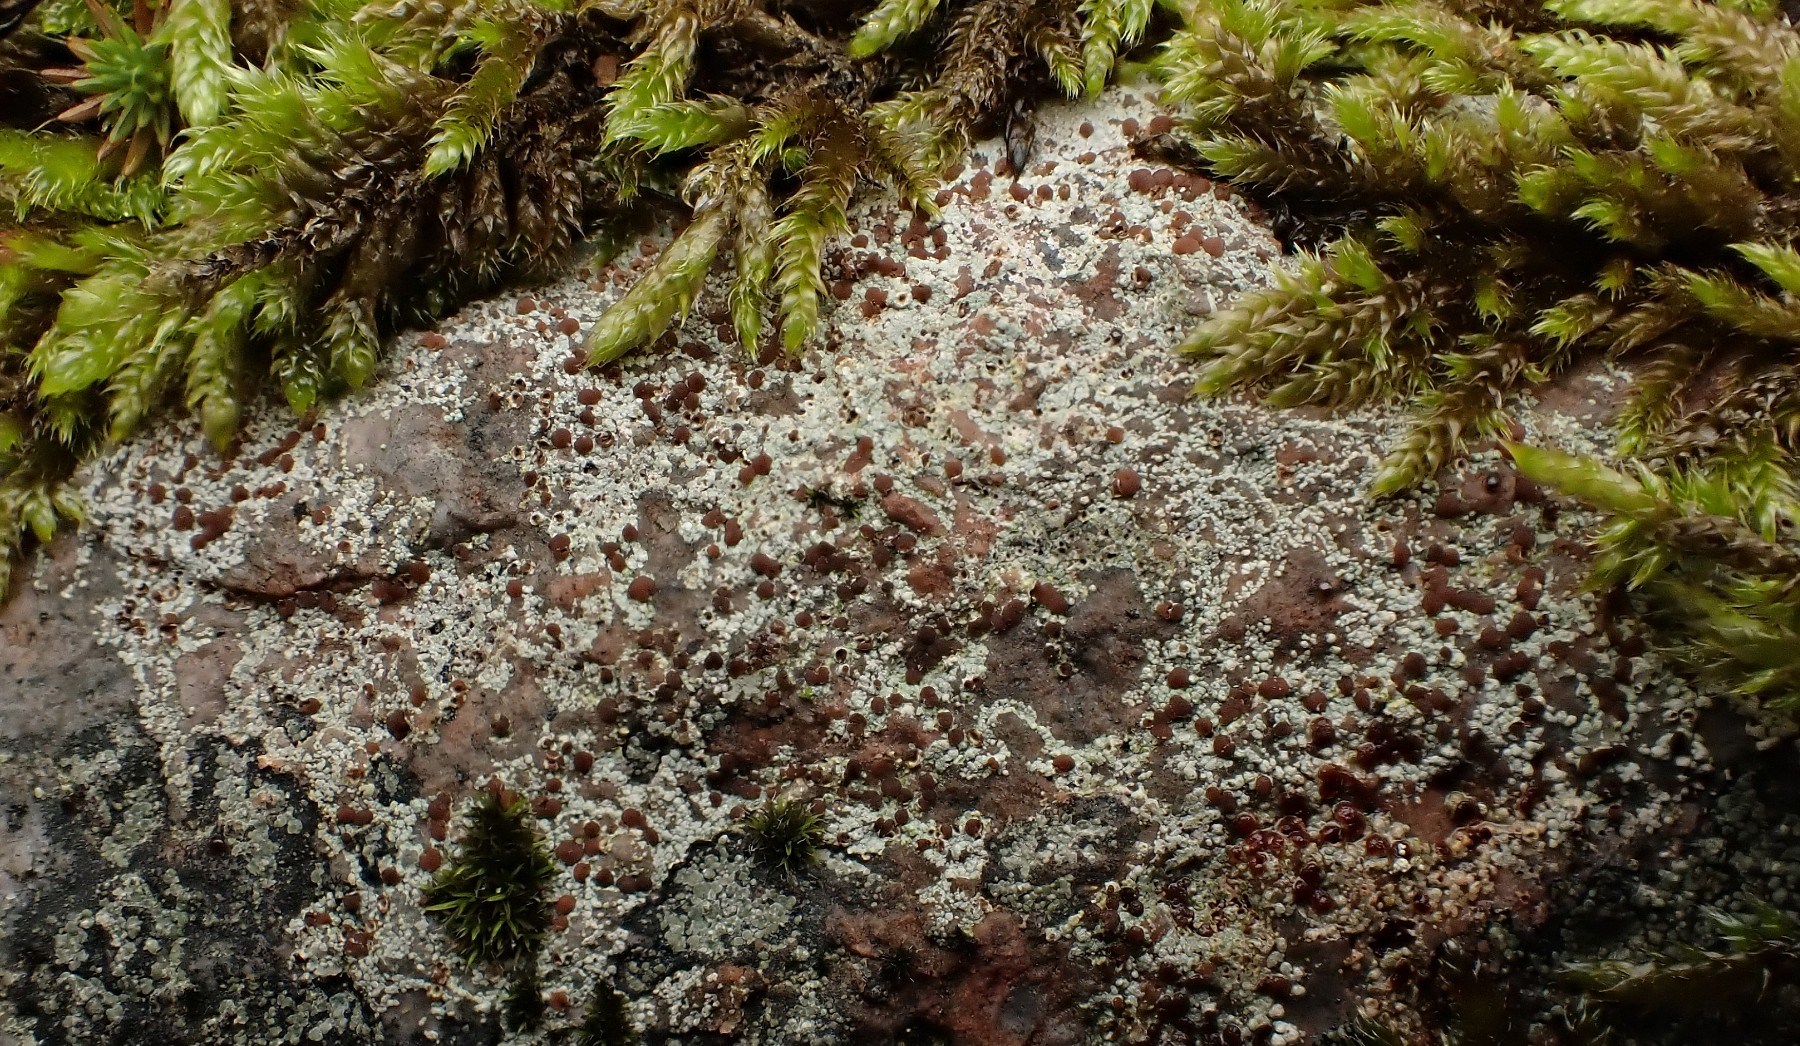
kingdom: Fungi
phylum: Ascomycota
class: Lecanoromycetes
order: Baeomycetales
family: Trapeliaceae
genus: Trapelia
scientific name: Trapelia coarctata
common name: hvidrandet brunskivelav
